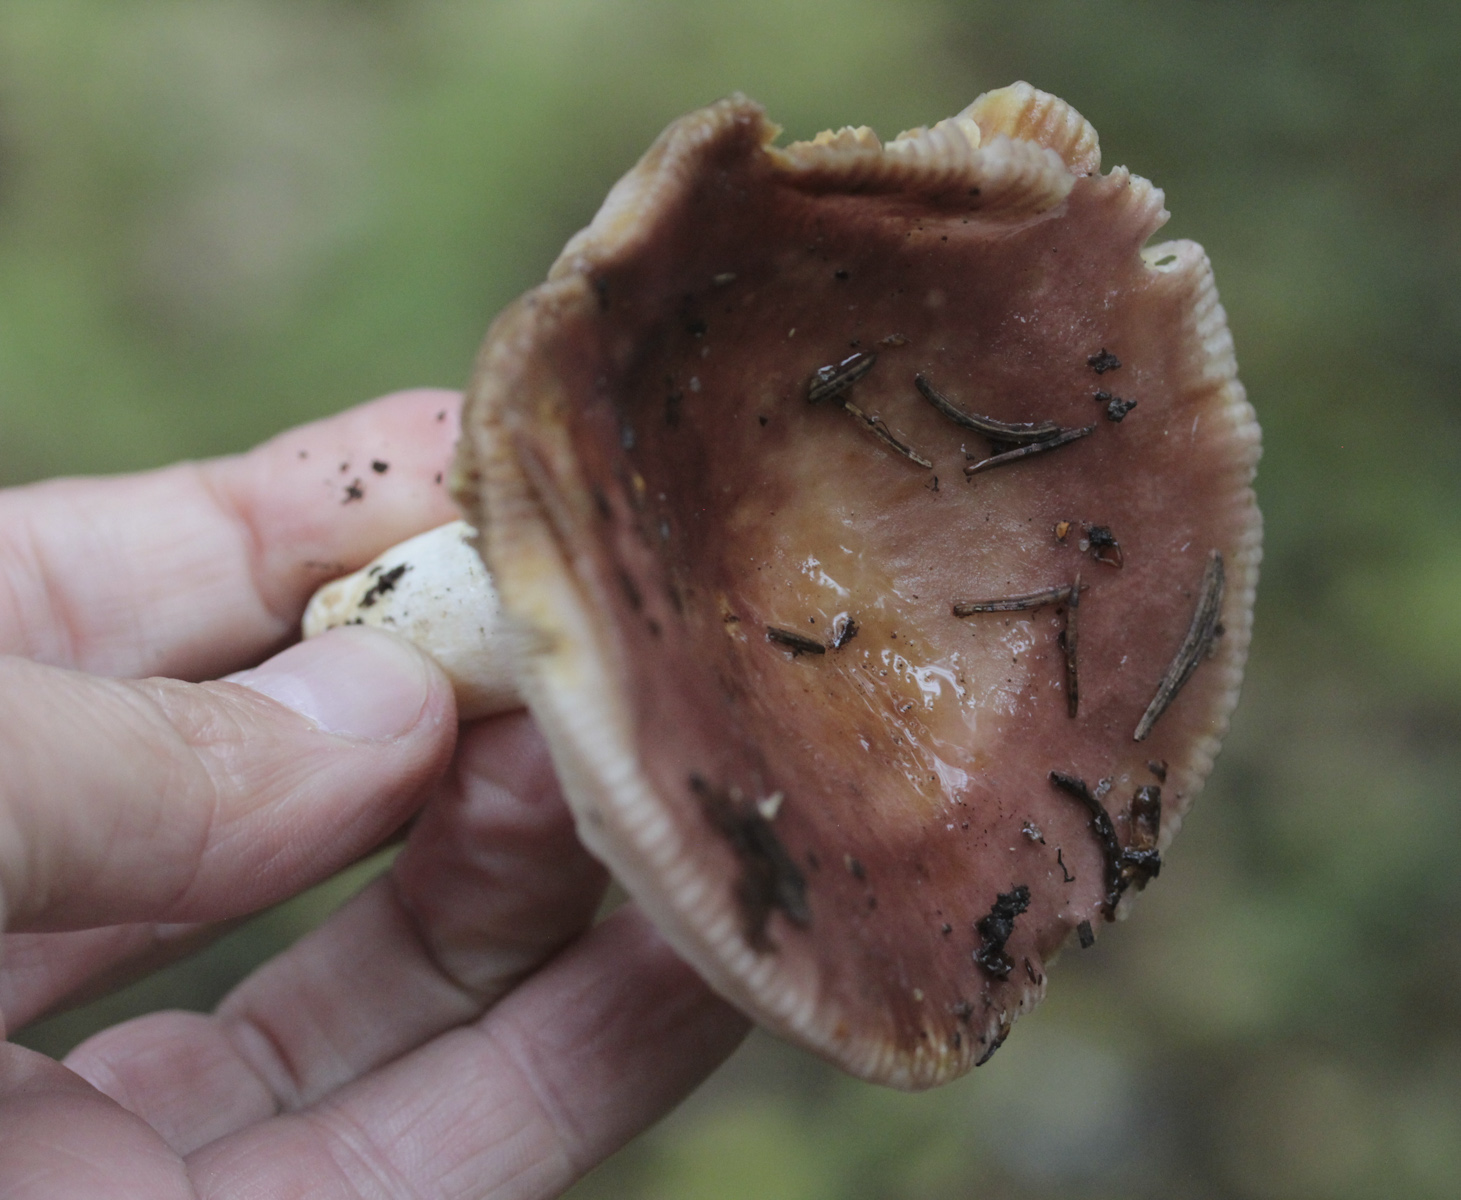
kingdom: Fungi
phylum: Basidiomycota
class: Agaricomycetes
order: Russulales
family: Russulaceae
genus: Russula
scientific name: Russula
